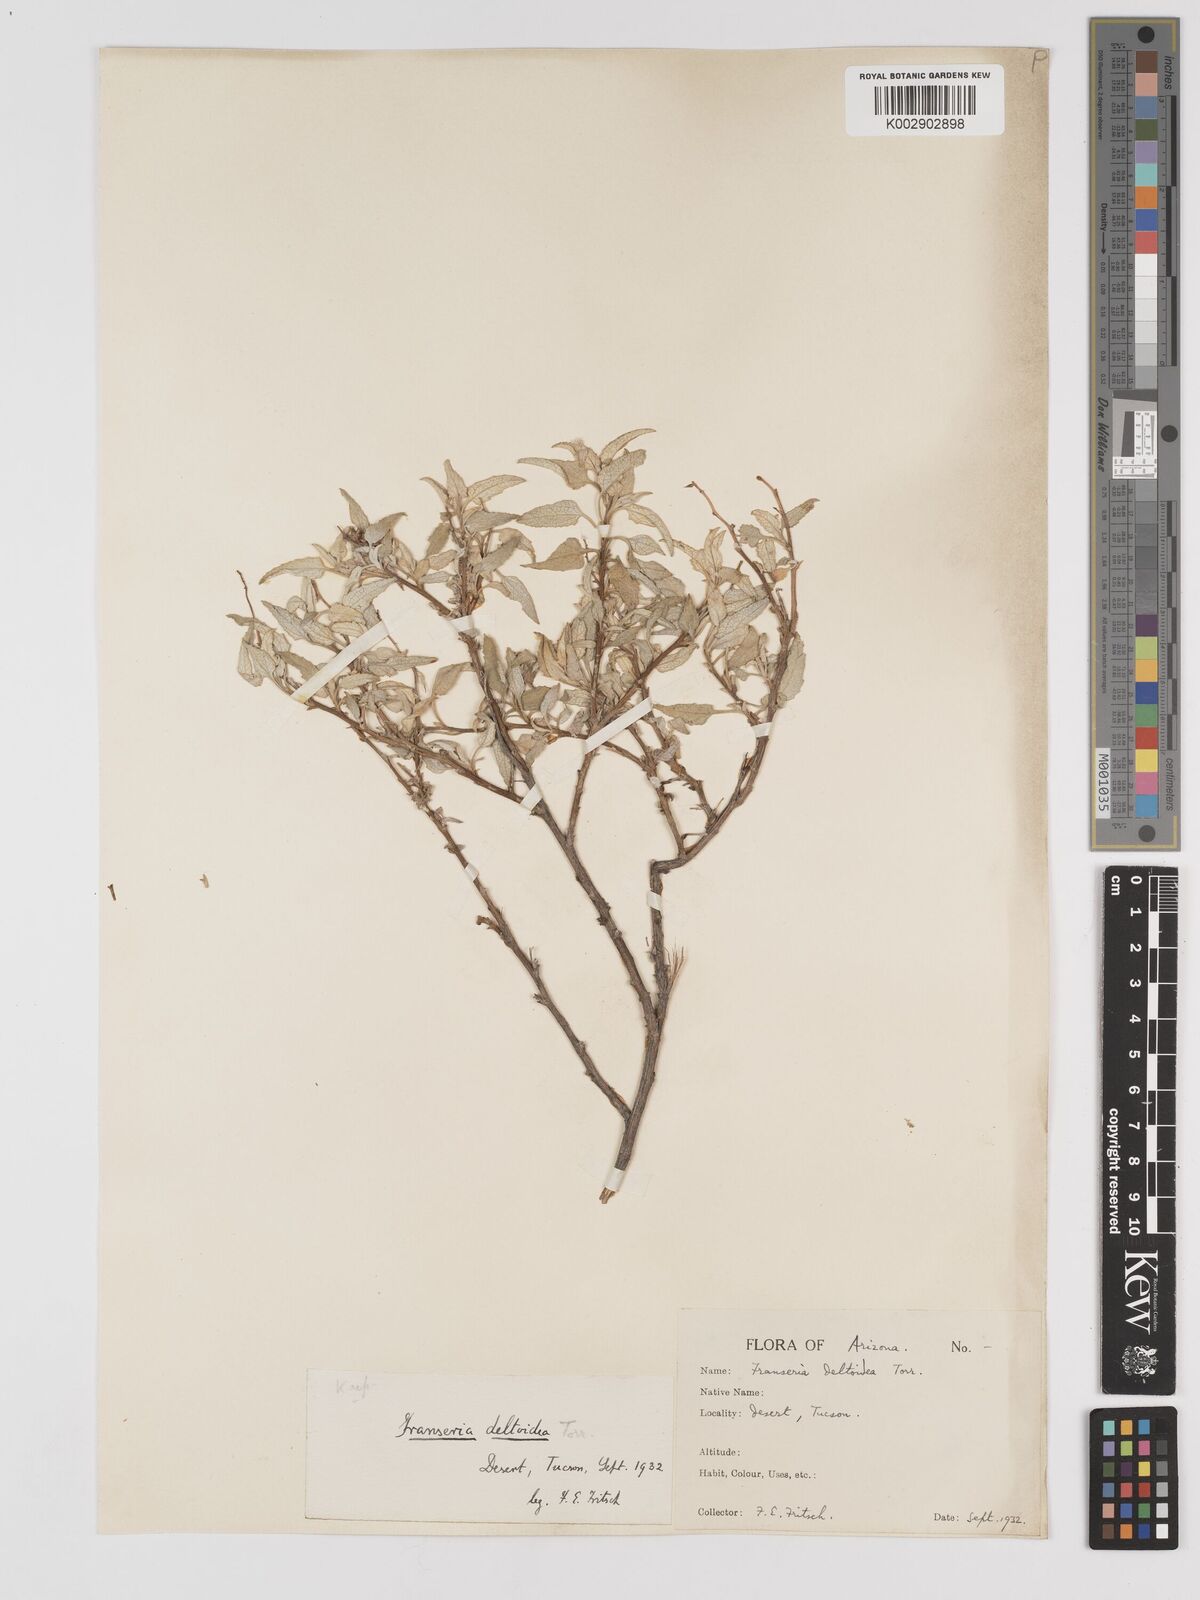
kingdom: Plantae
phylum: Tracheophyta
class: Magnoliopsida
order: Asterales
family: Asteraceae
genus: Ambrosia
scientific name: Ambrosia
